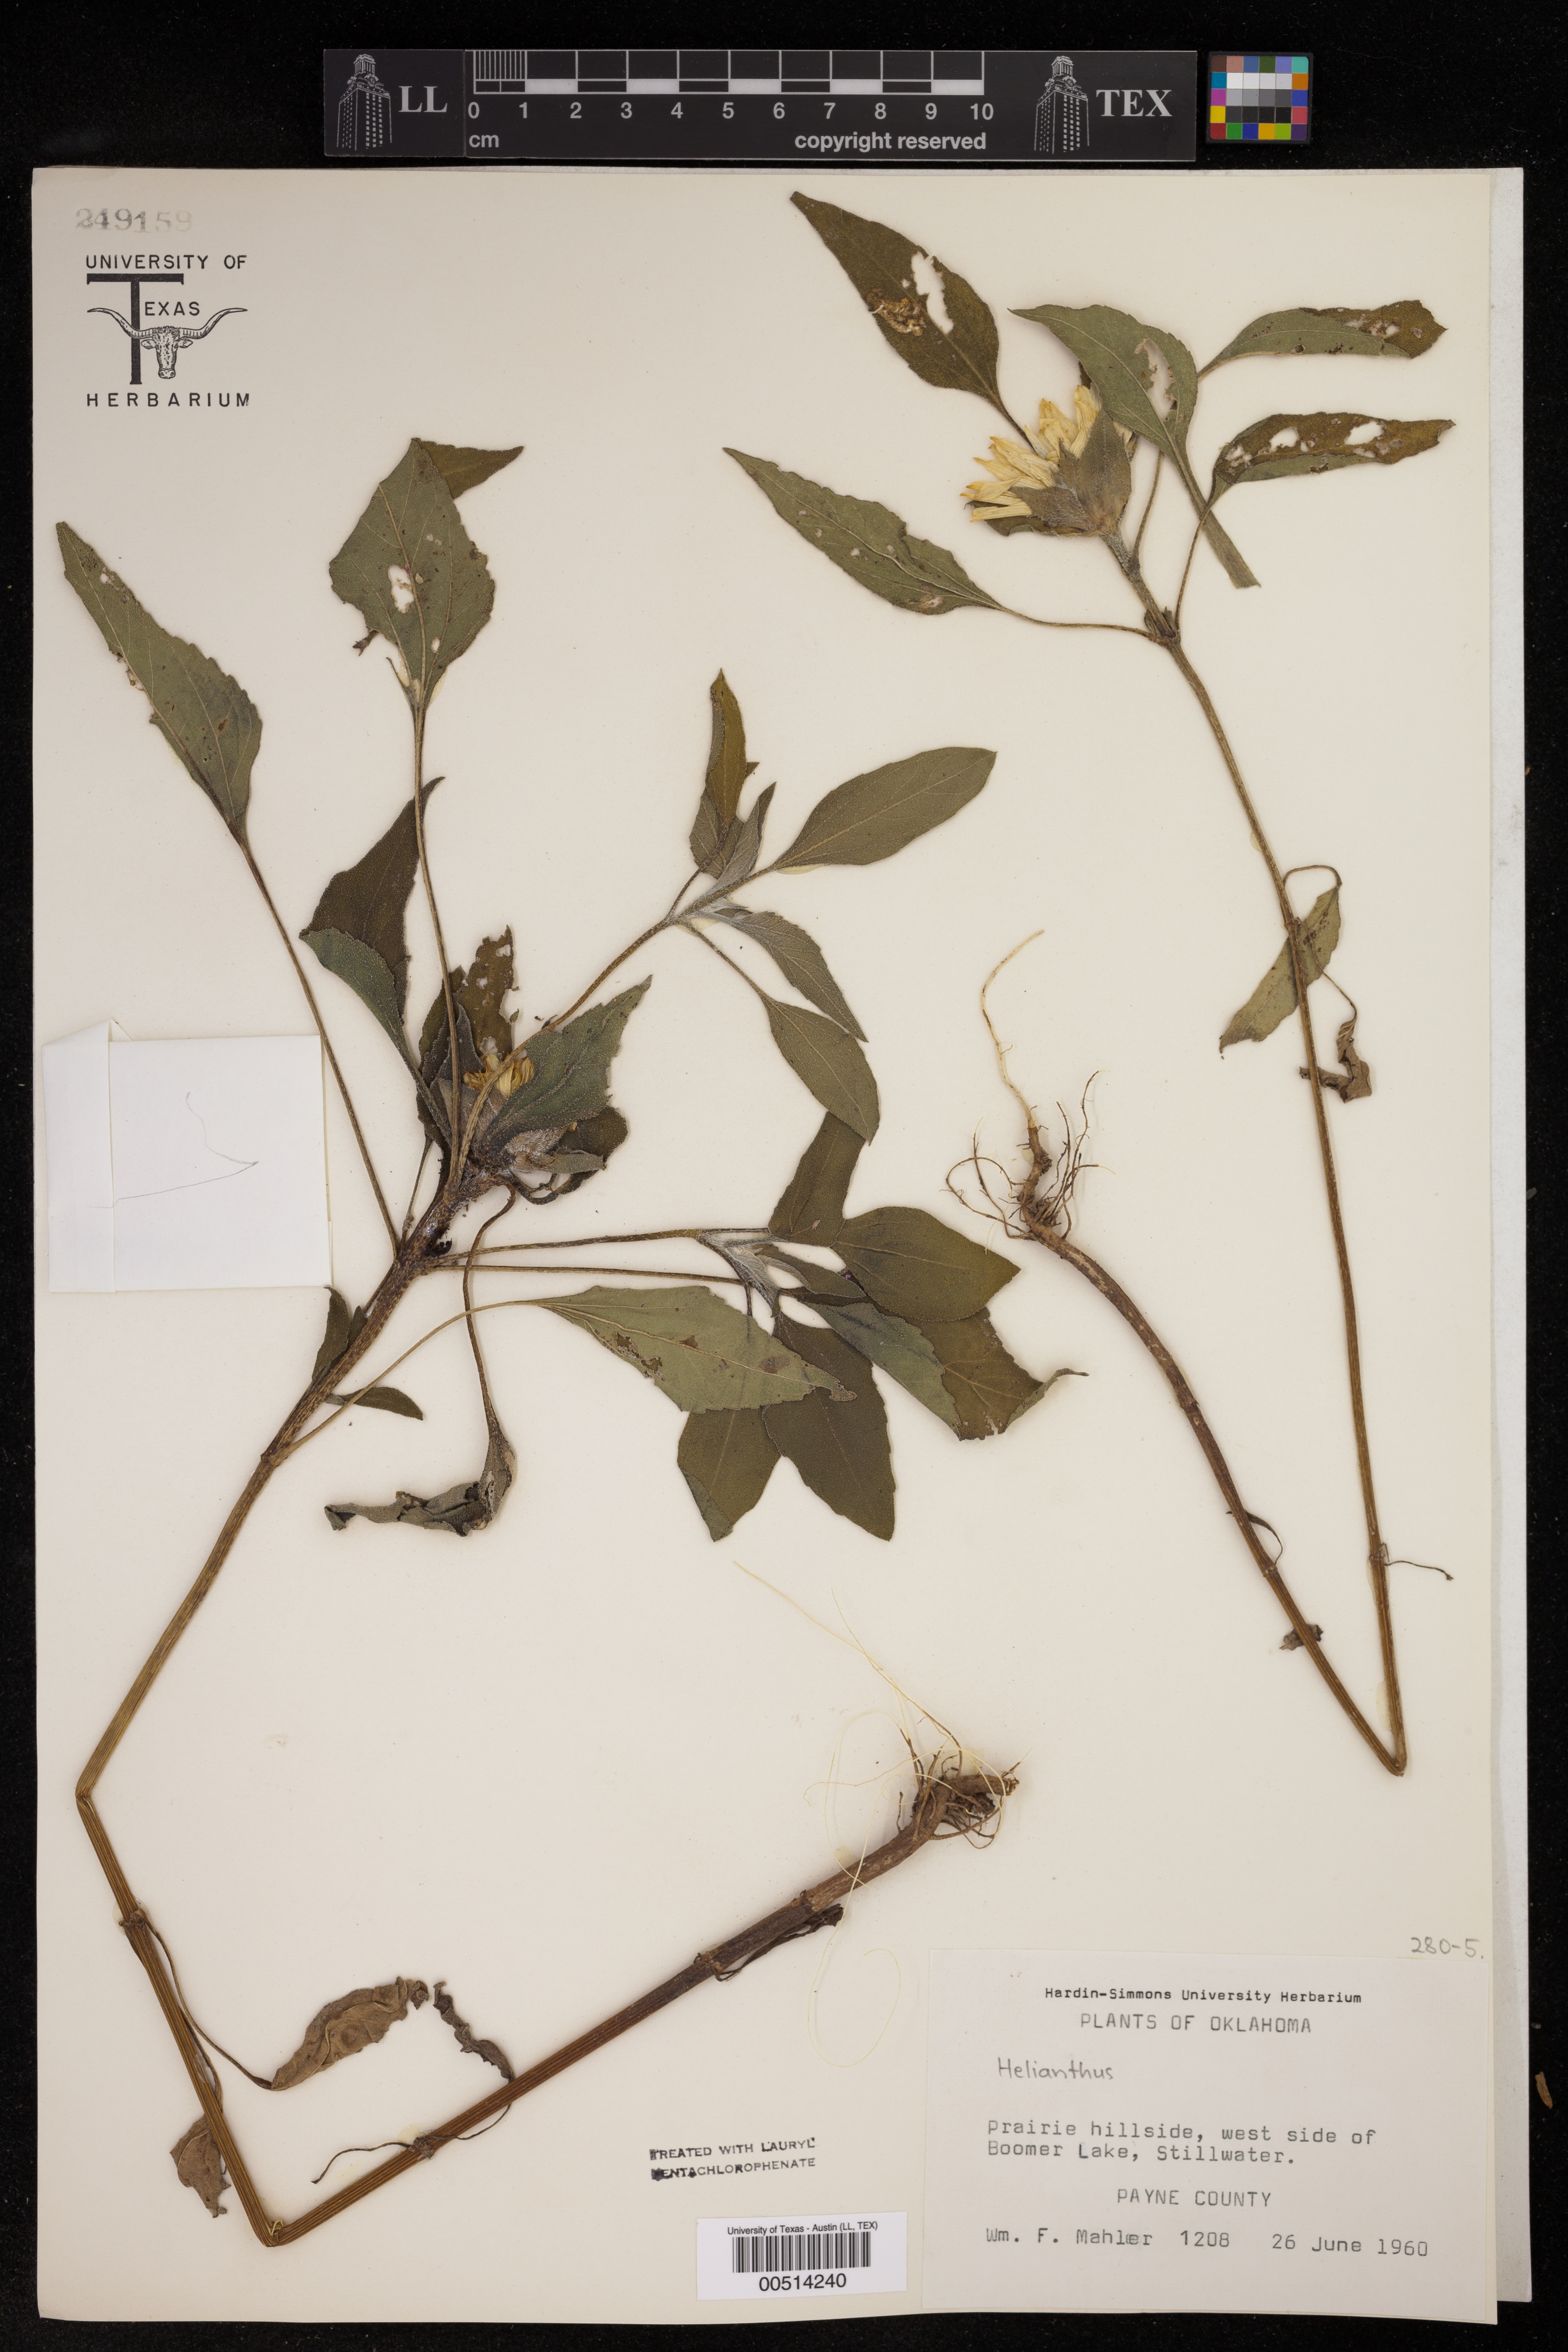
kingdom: Plantae
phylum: Tracheophyta
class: Magnoliopsida
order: Asterales
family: Asteraceae
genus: Helianthus
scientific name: Helianthus
